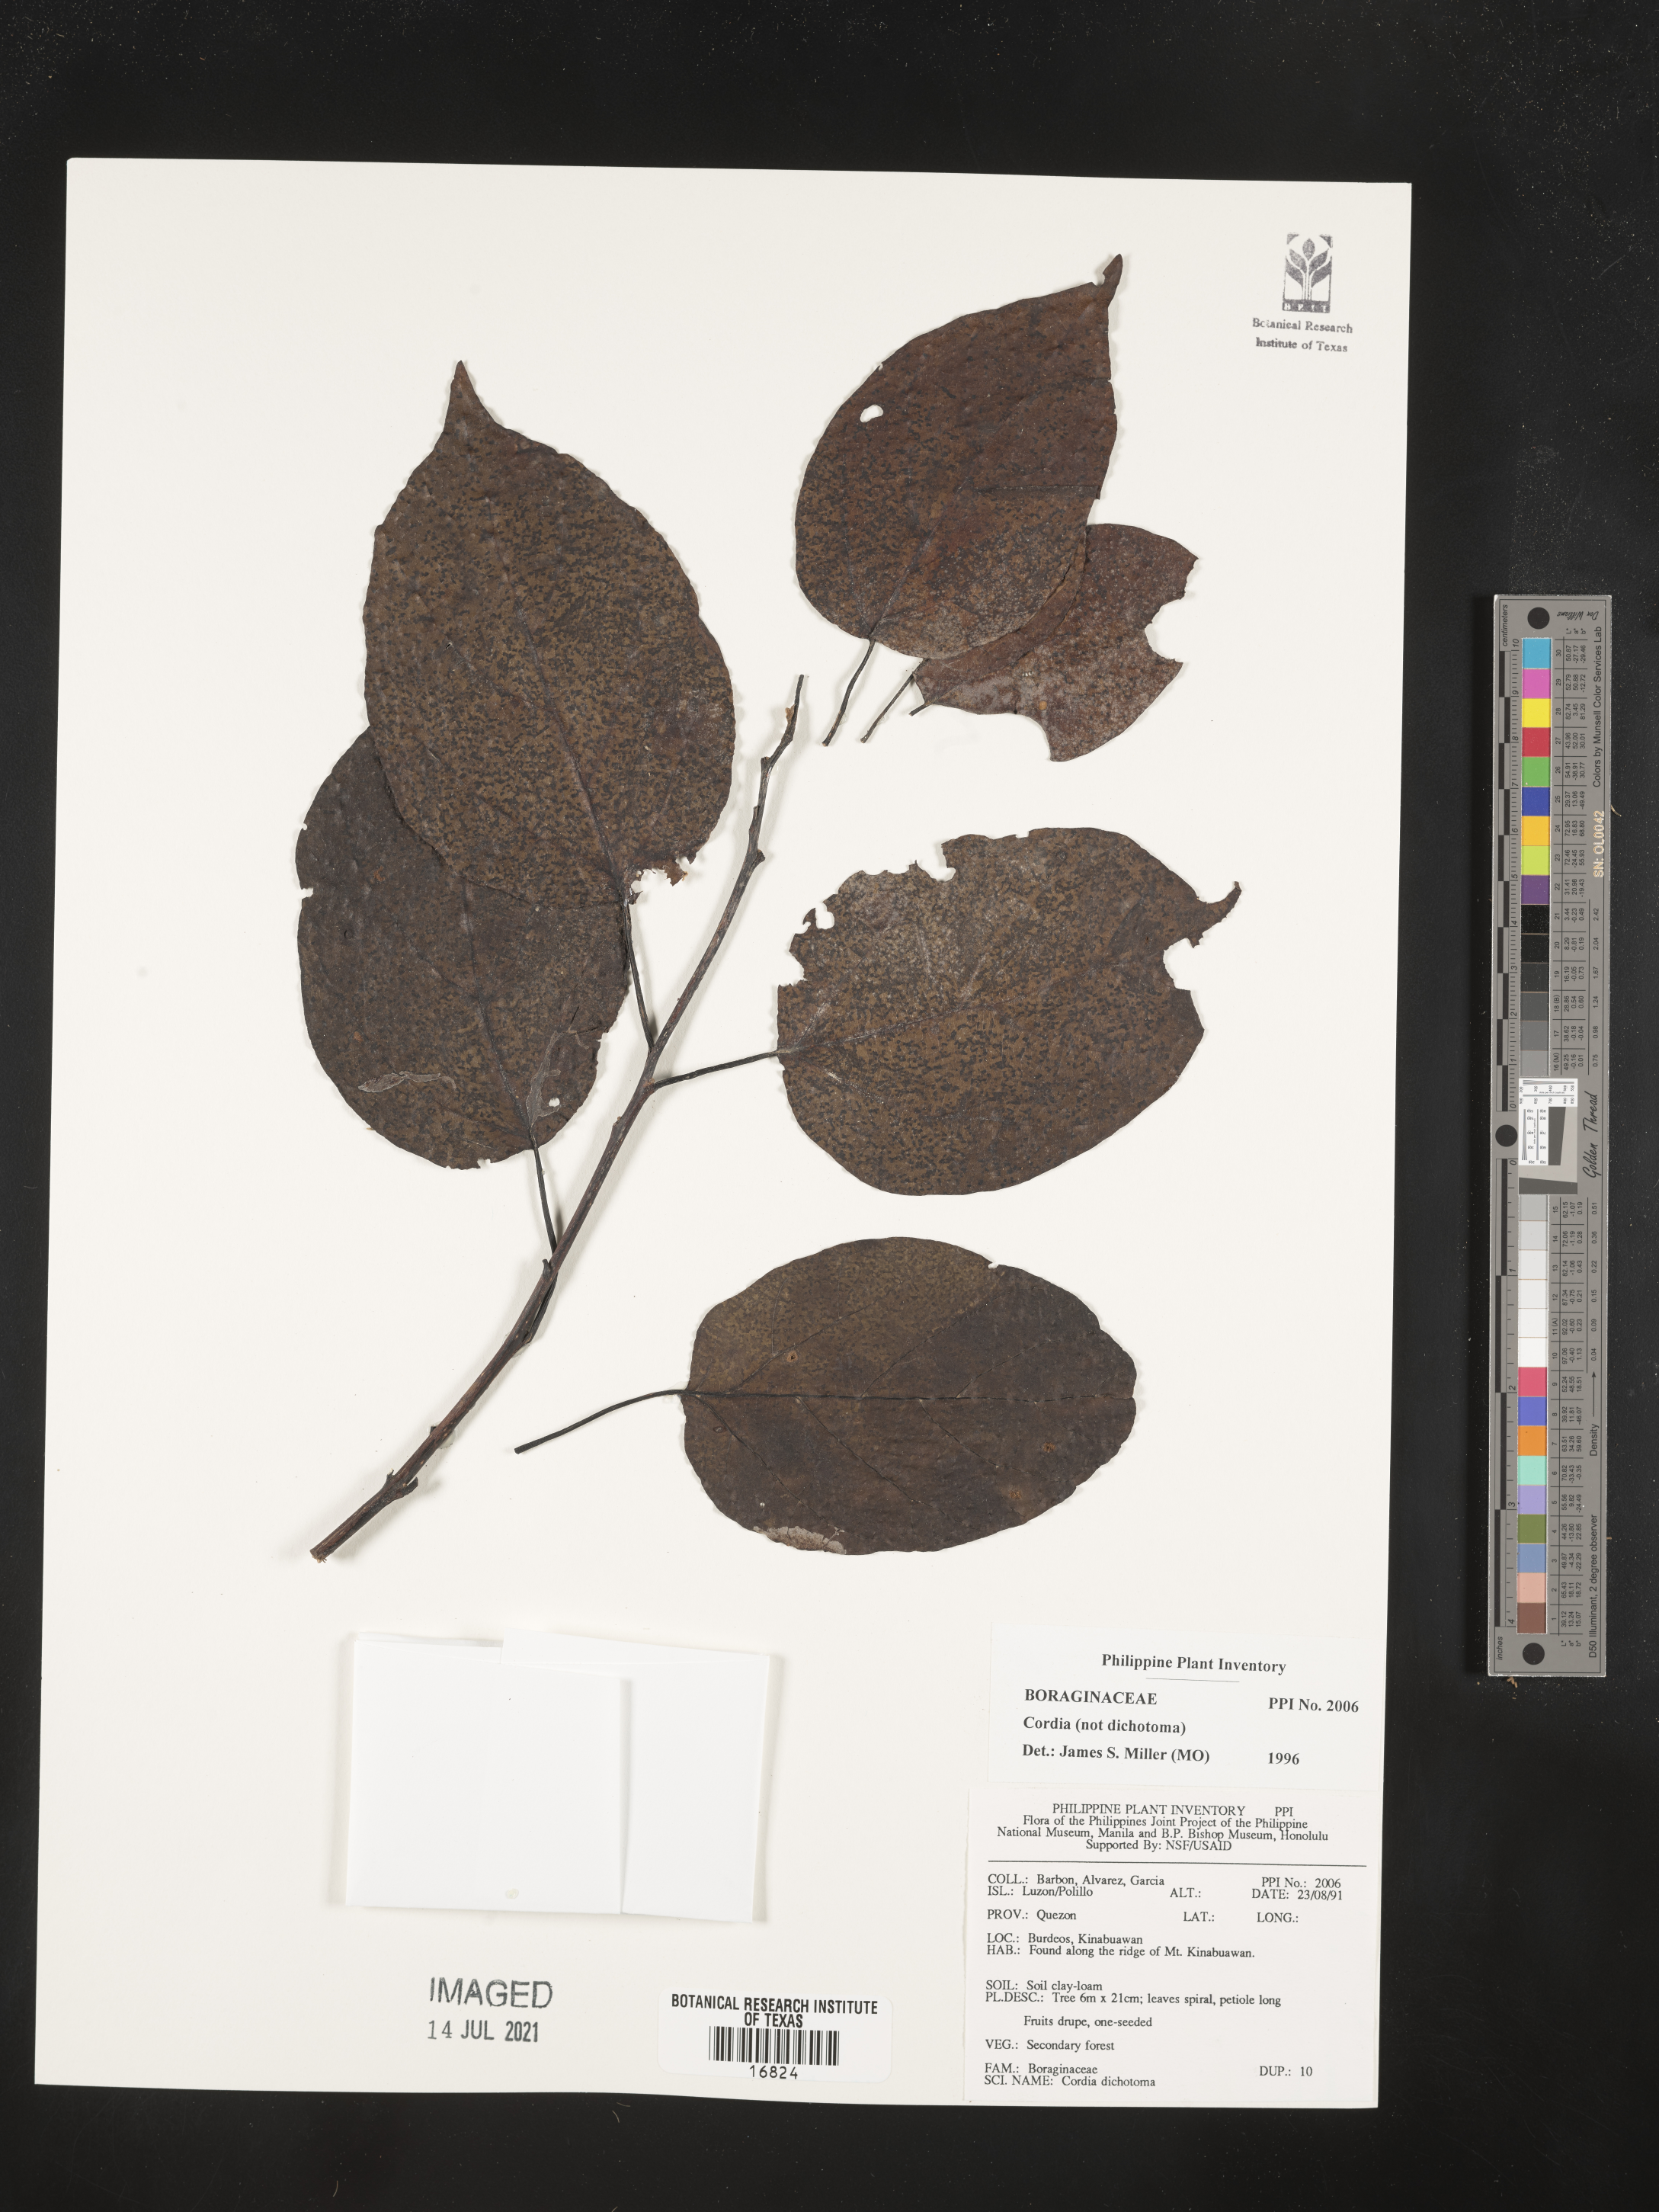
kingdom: Plantae
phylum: Tracheophyta
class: Magnoliopsida
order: Boraginales
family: Cordiaceae
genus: Cordia
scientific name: Cordia dichotoma
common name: Fragrant manjack
